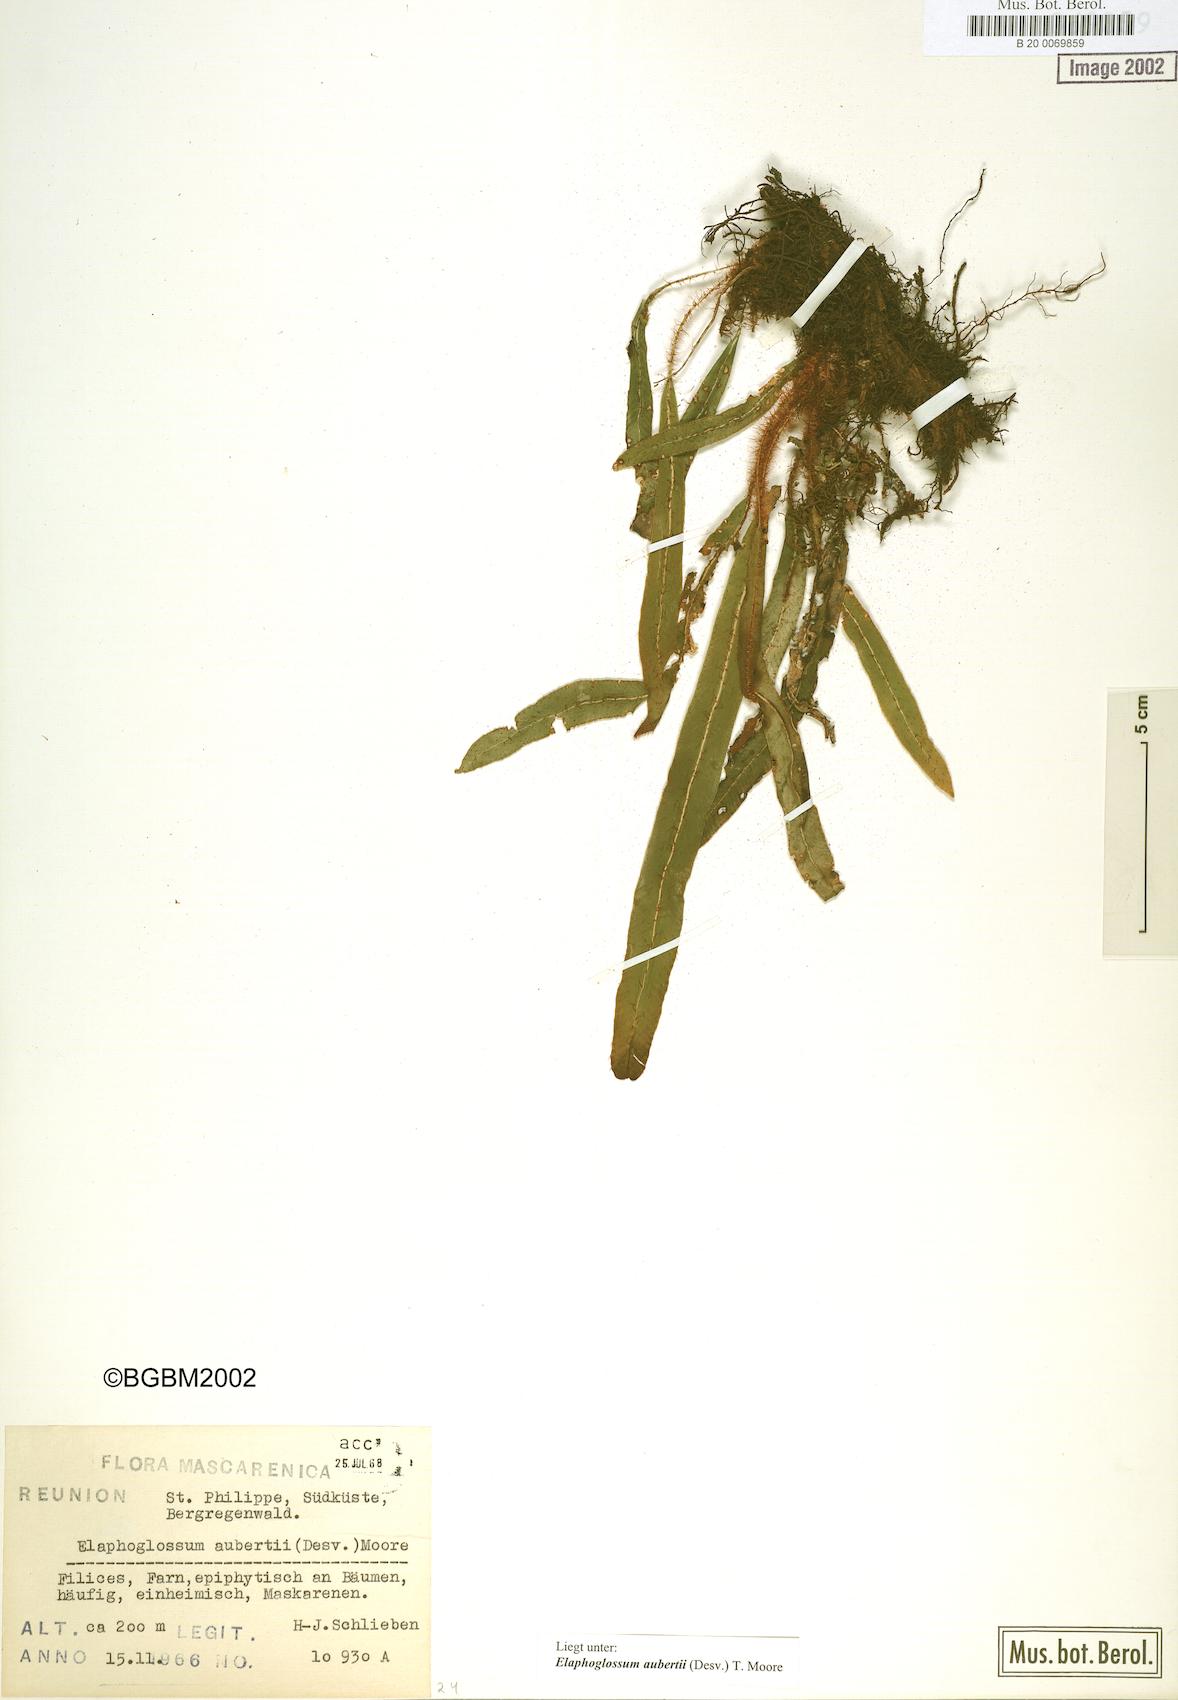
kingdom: Plantae
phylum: Tracheophyta
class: Polypodiopsida
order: Polypodiales
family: Dryopteridaceae
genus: Elaphoglossum
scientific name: Elaphoglossum aubertii
